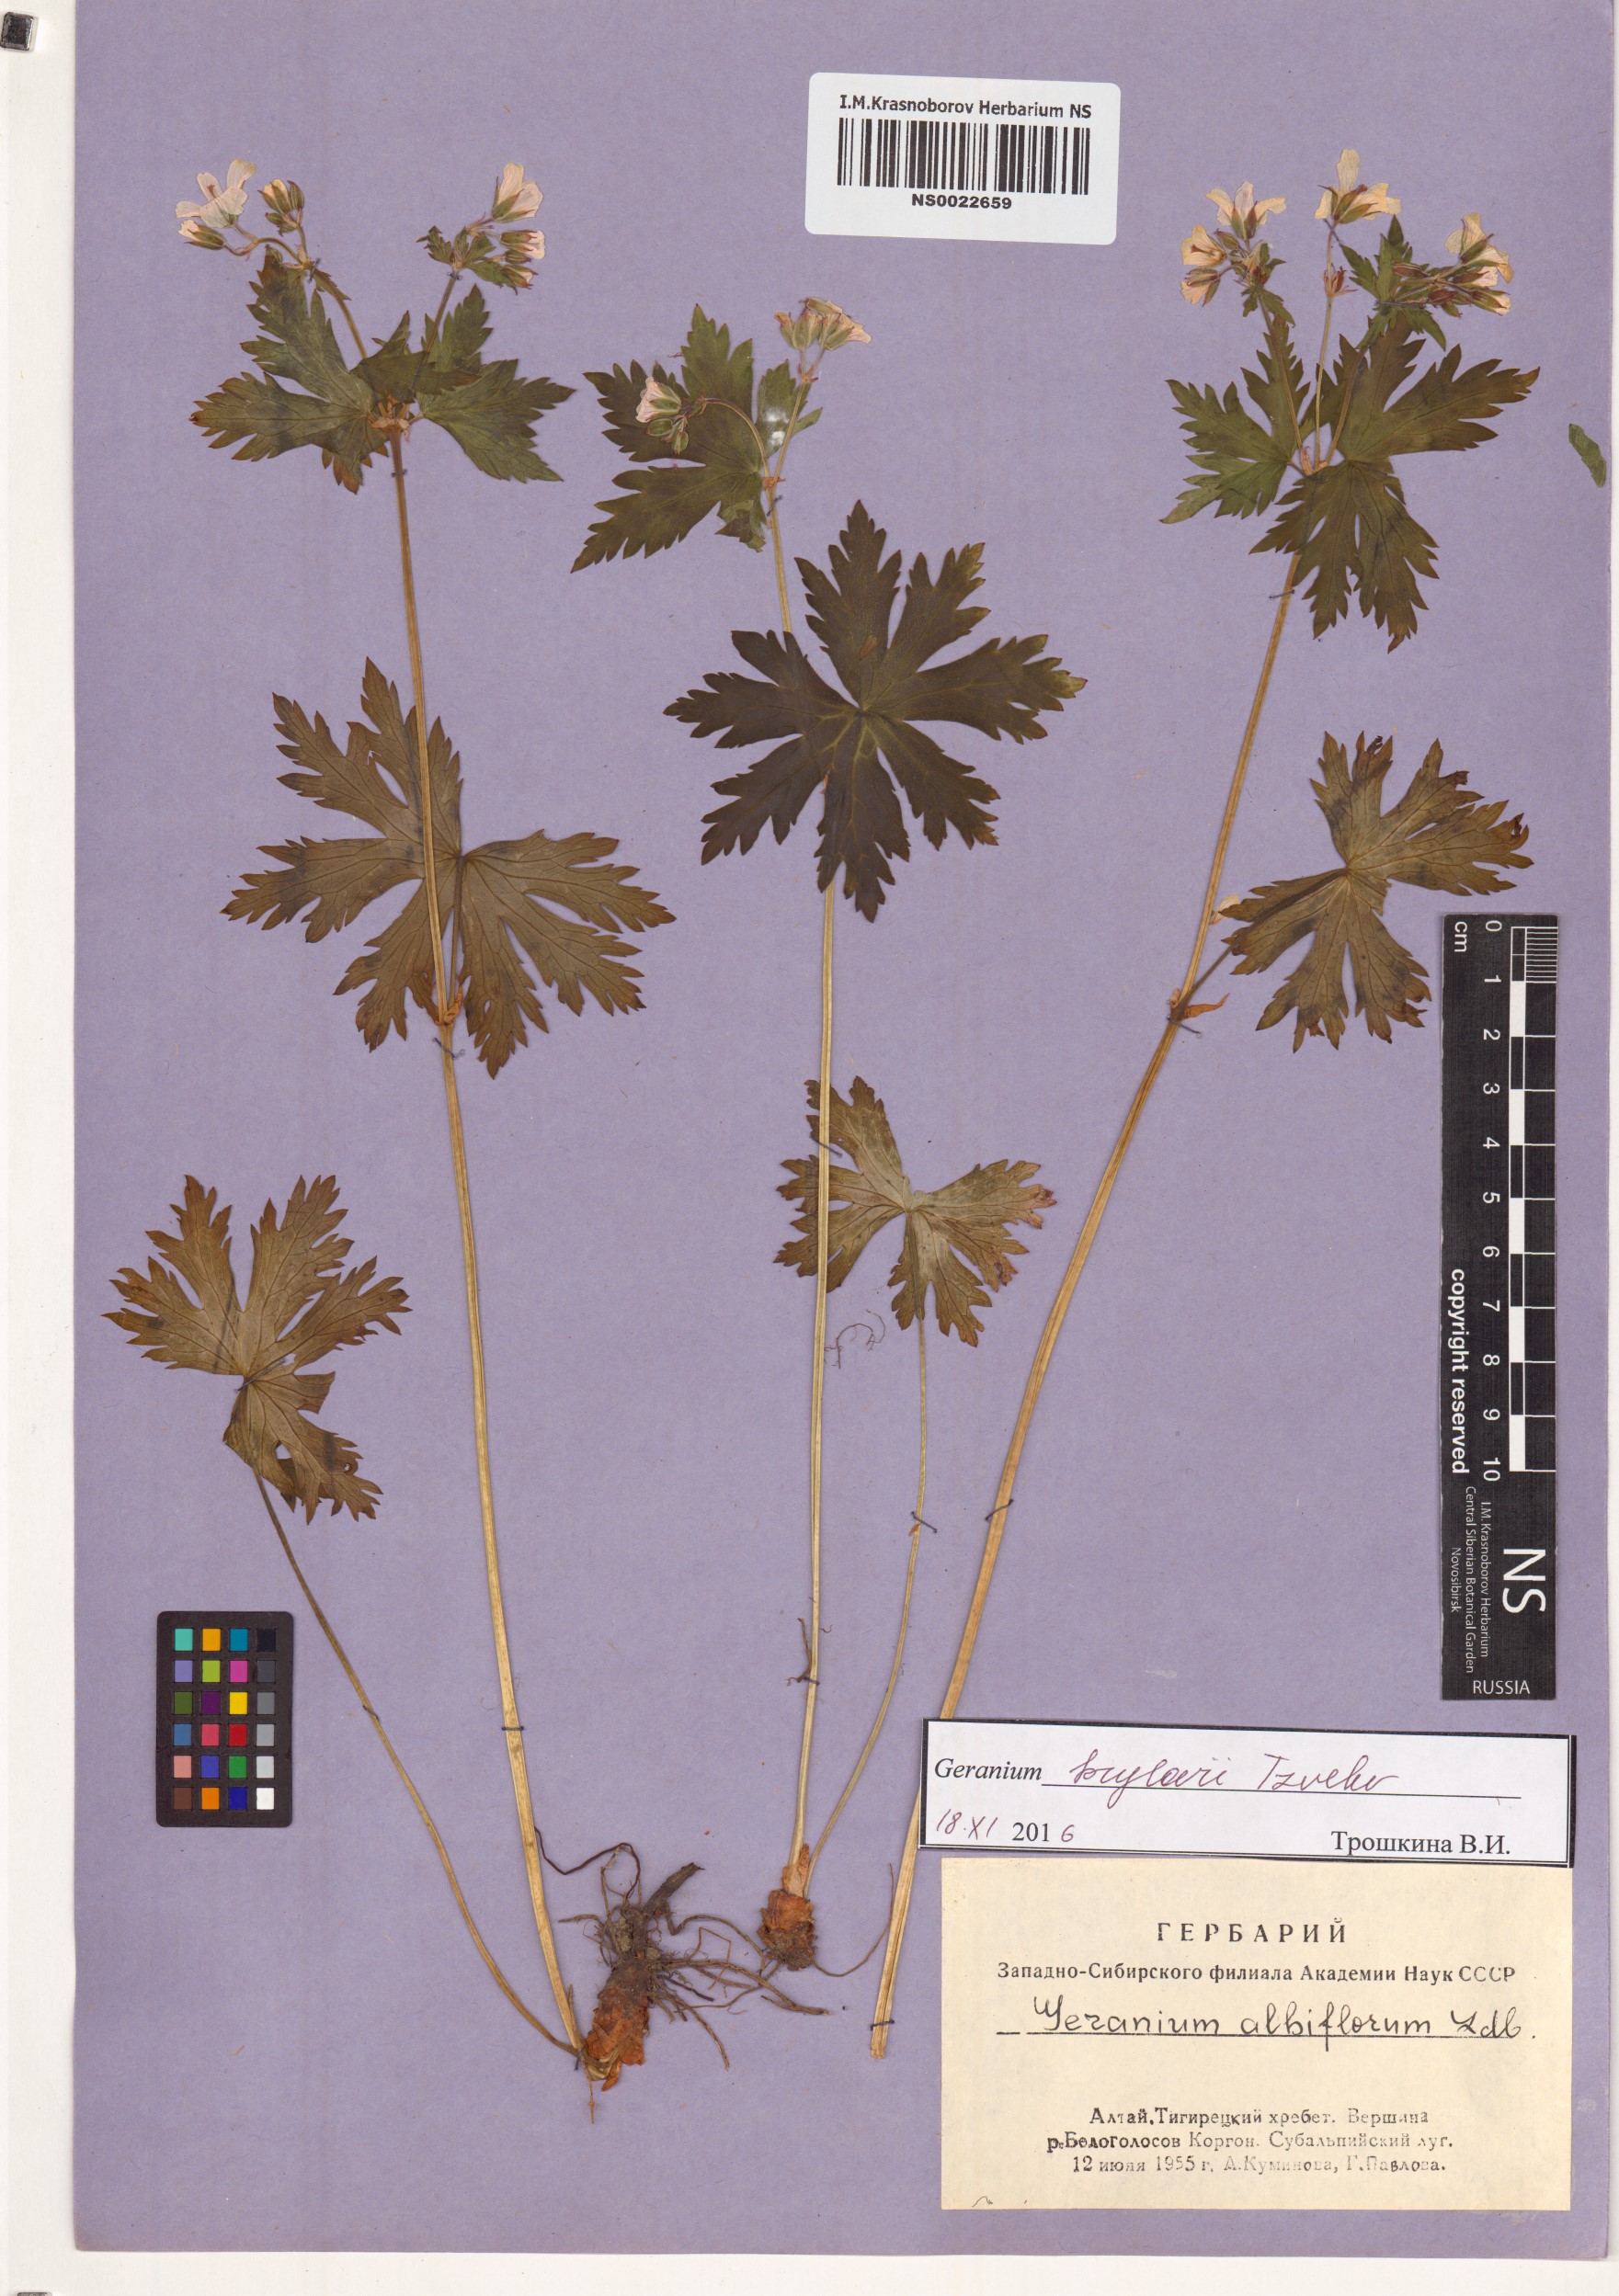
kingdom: Plantae
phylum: Tracheophyta
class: Magnoliopsida
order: Geraniales
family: Geraniaceae
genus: Geranium
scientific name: Geranium sylvaticum
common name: Wood crane's-bill
